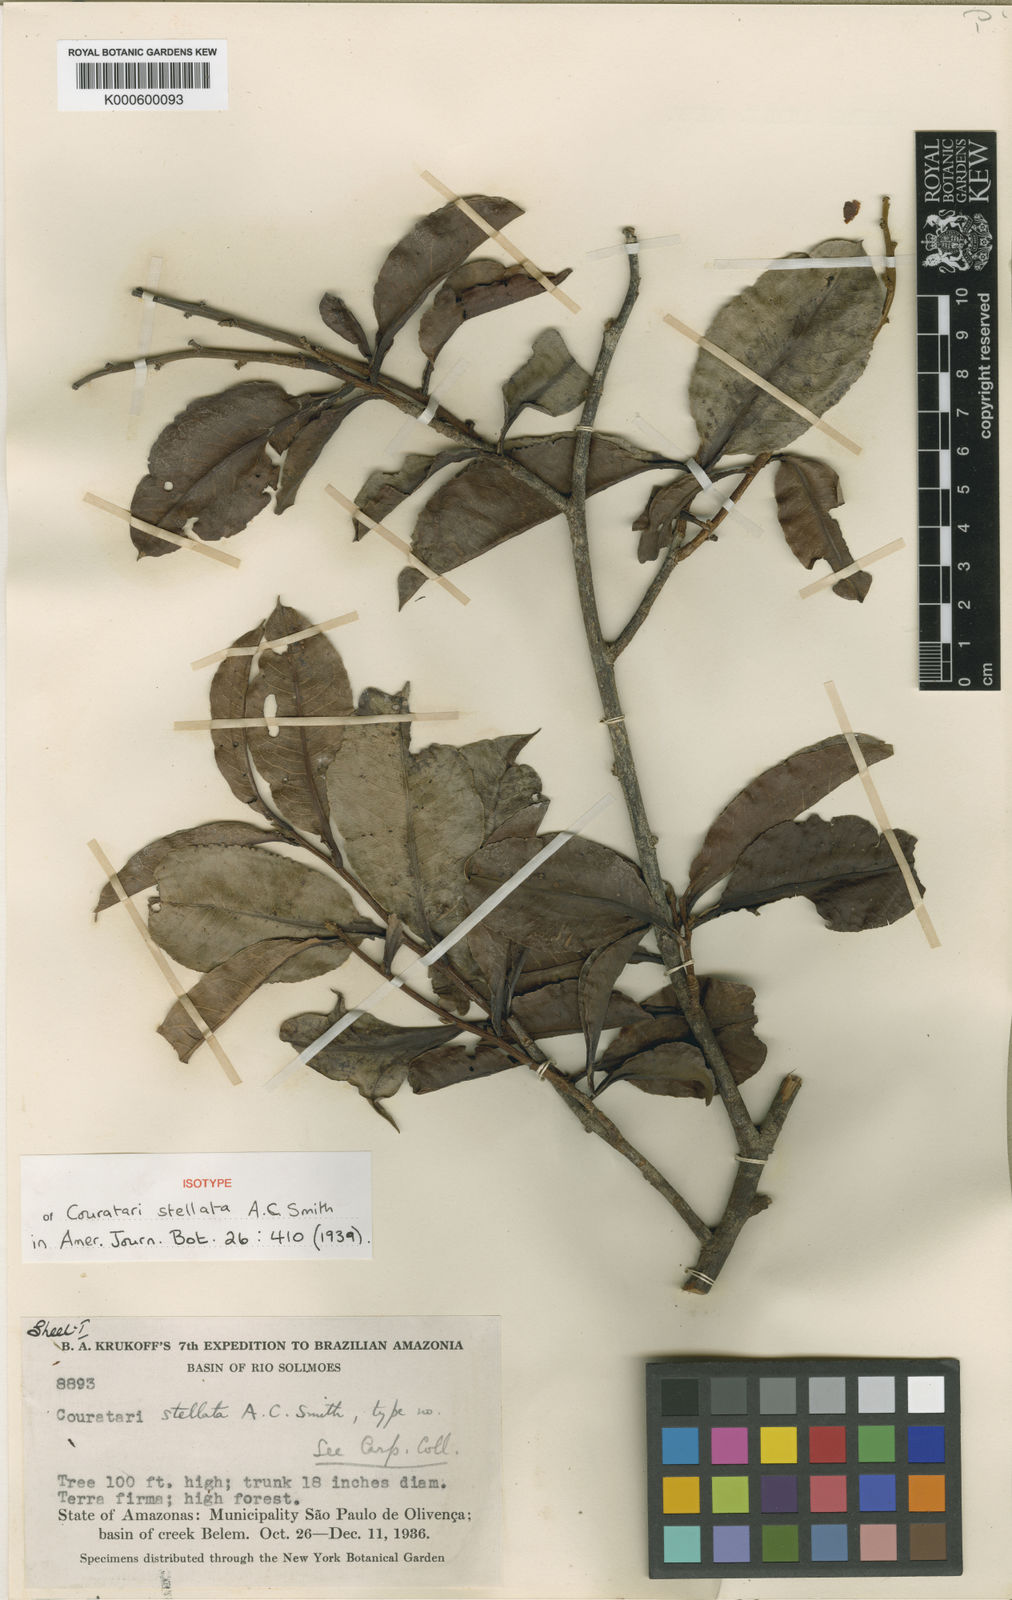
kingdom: Plantae
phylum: Tracheophyta
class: Magnoliopsida
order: Ericales
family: Lecythidaceae
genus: Couratari
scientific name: Couratari stellata
